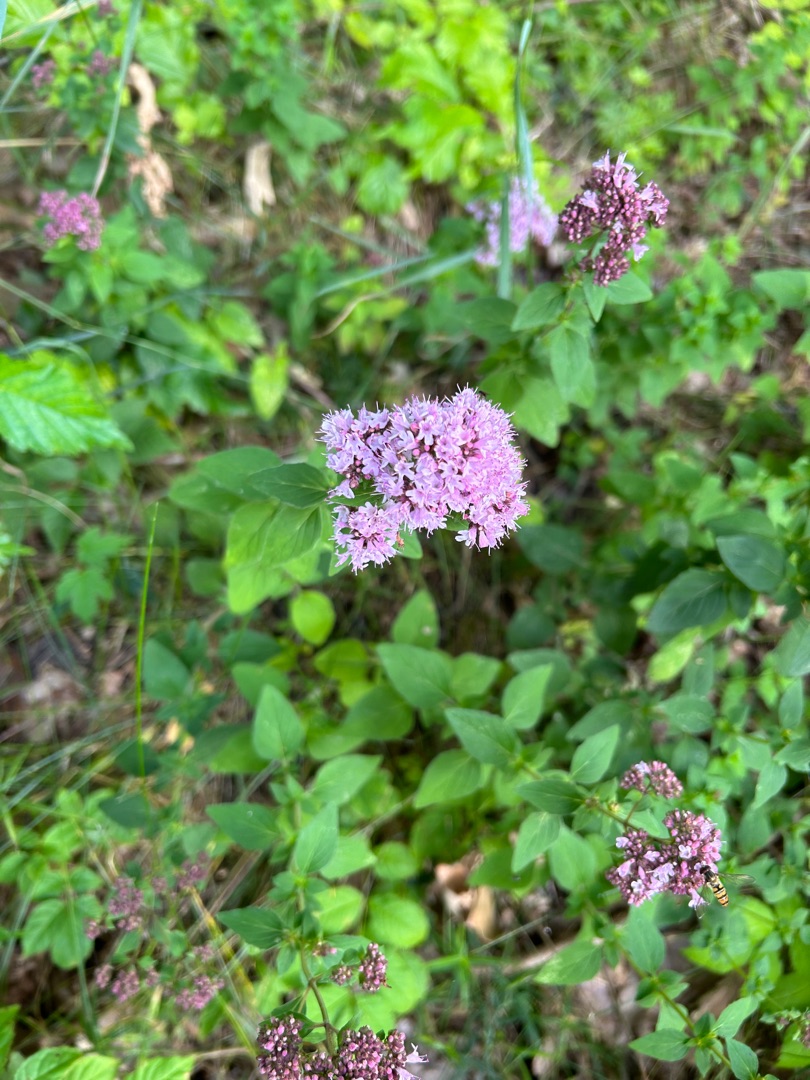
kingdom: Plantae
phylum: Tracheophyta
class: Magnoliopsida
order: Lamiales
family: Lamiaceae
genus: Origanum
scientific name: Origanum vulgare
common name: Merian
